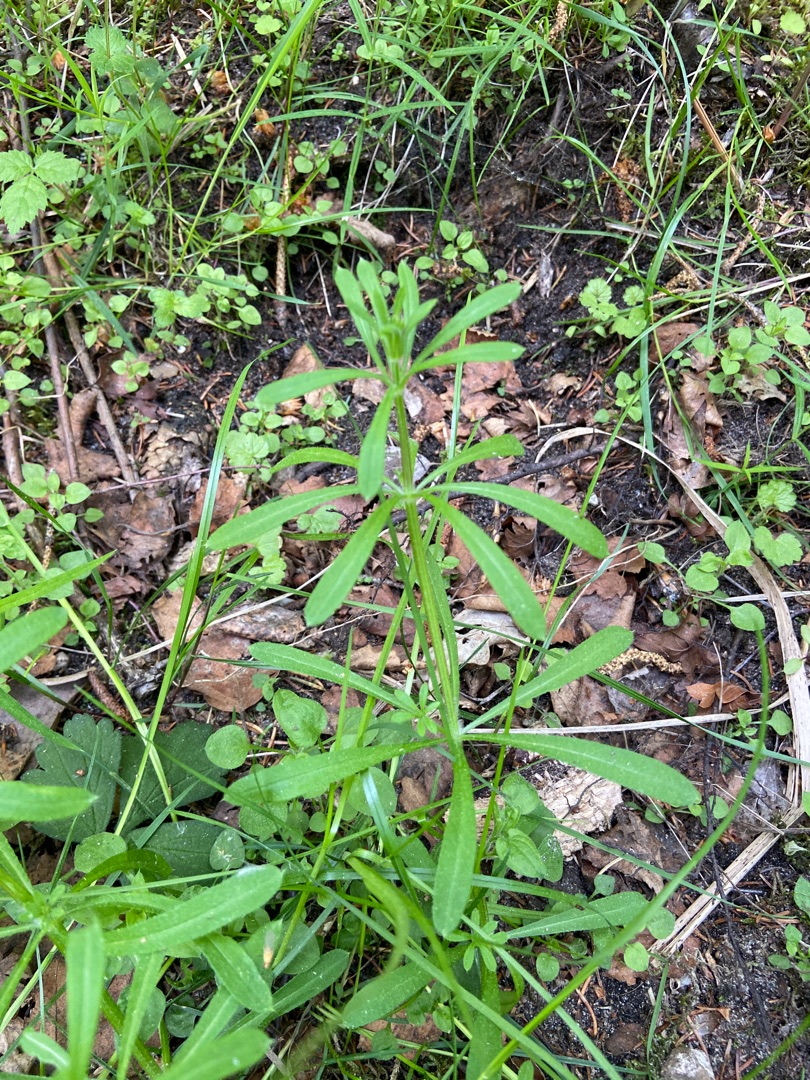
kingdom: Plantae
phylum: Tracheophyta
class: Magnoliopsida
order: Gentianales
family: Rubiaceae
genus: Galium
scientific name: Galium aparine
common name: Burre-snerre
